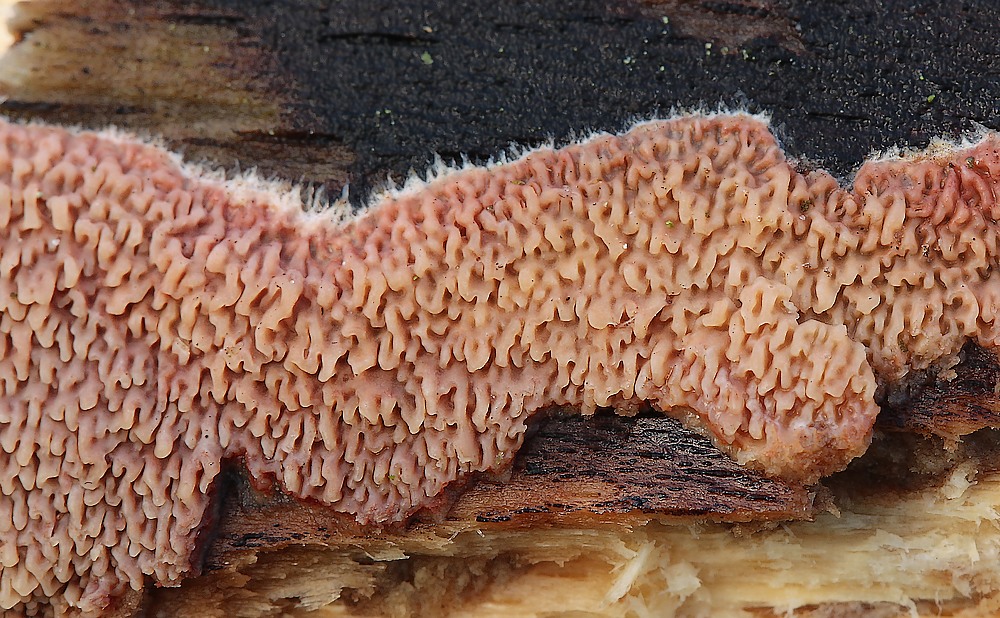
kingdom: Fungi
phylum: Basidiomycota
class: Agaricomycetes
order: Corticiales
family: Corticiaceae
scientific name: Corticiaceae
